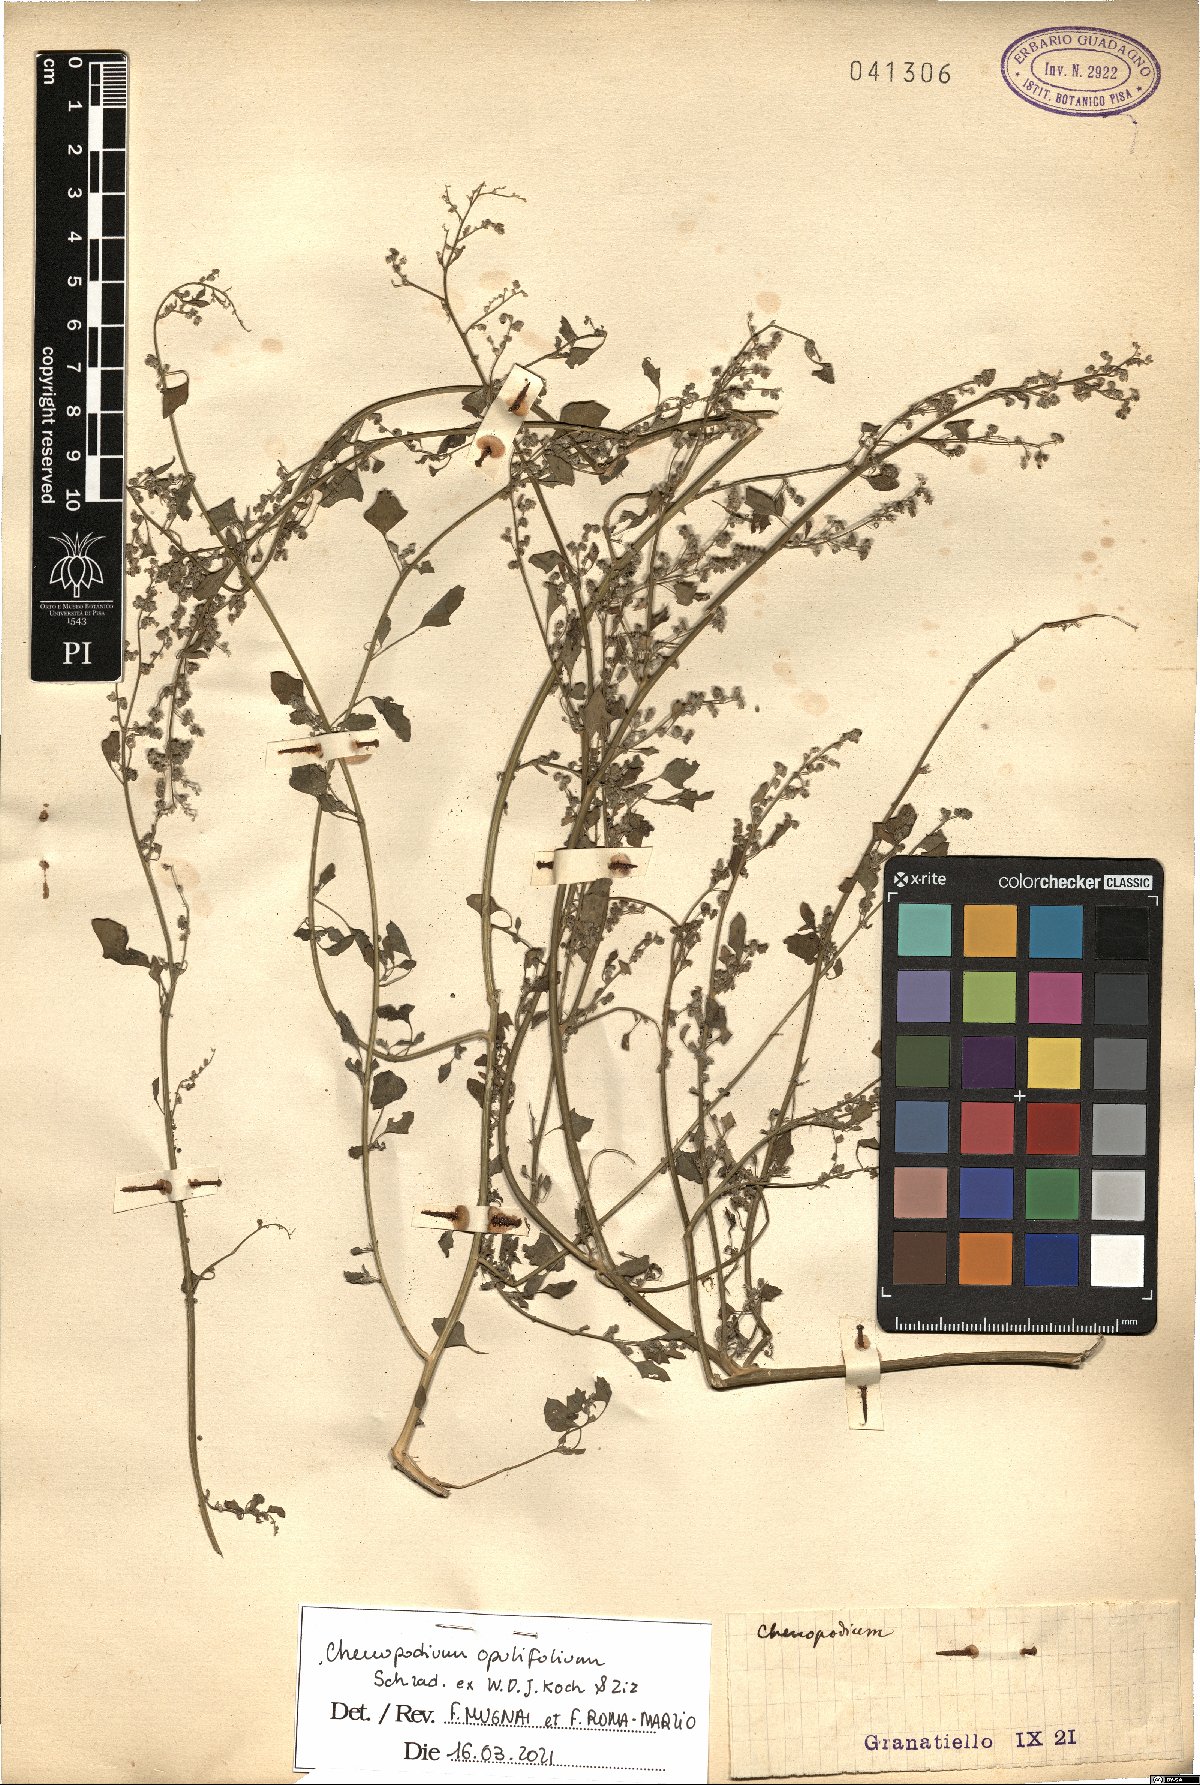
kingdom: Plantae
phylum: Tracheophyta
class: Magnoliopsida
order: Caryophyllales
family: Amaranthaceae
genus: Chenopodium
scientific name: Chenopodium opulifolium
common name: Grey goosefoot
